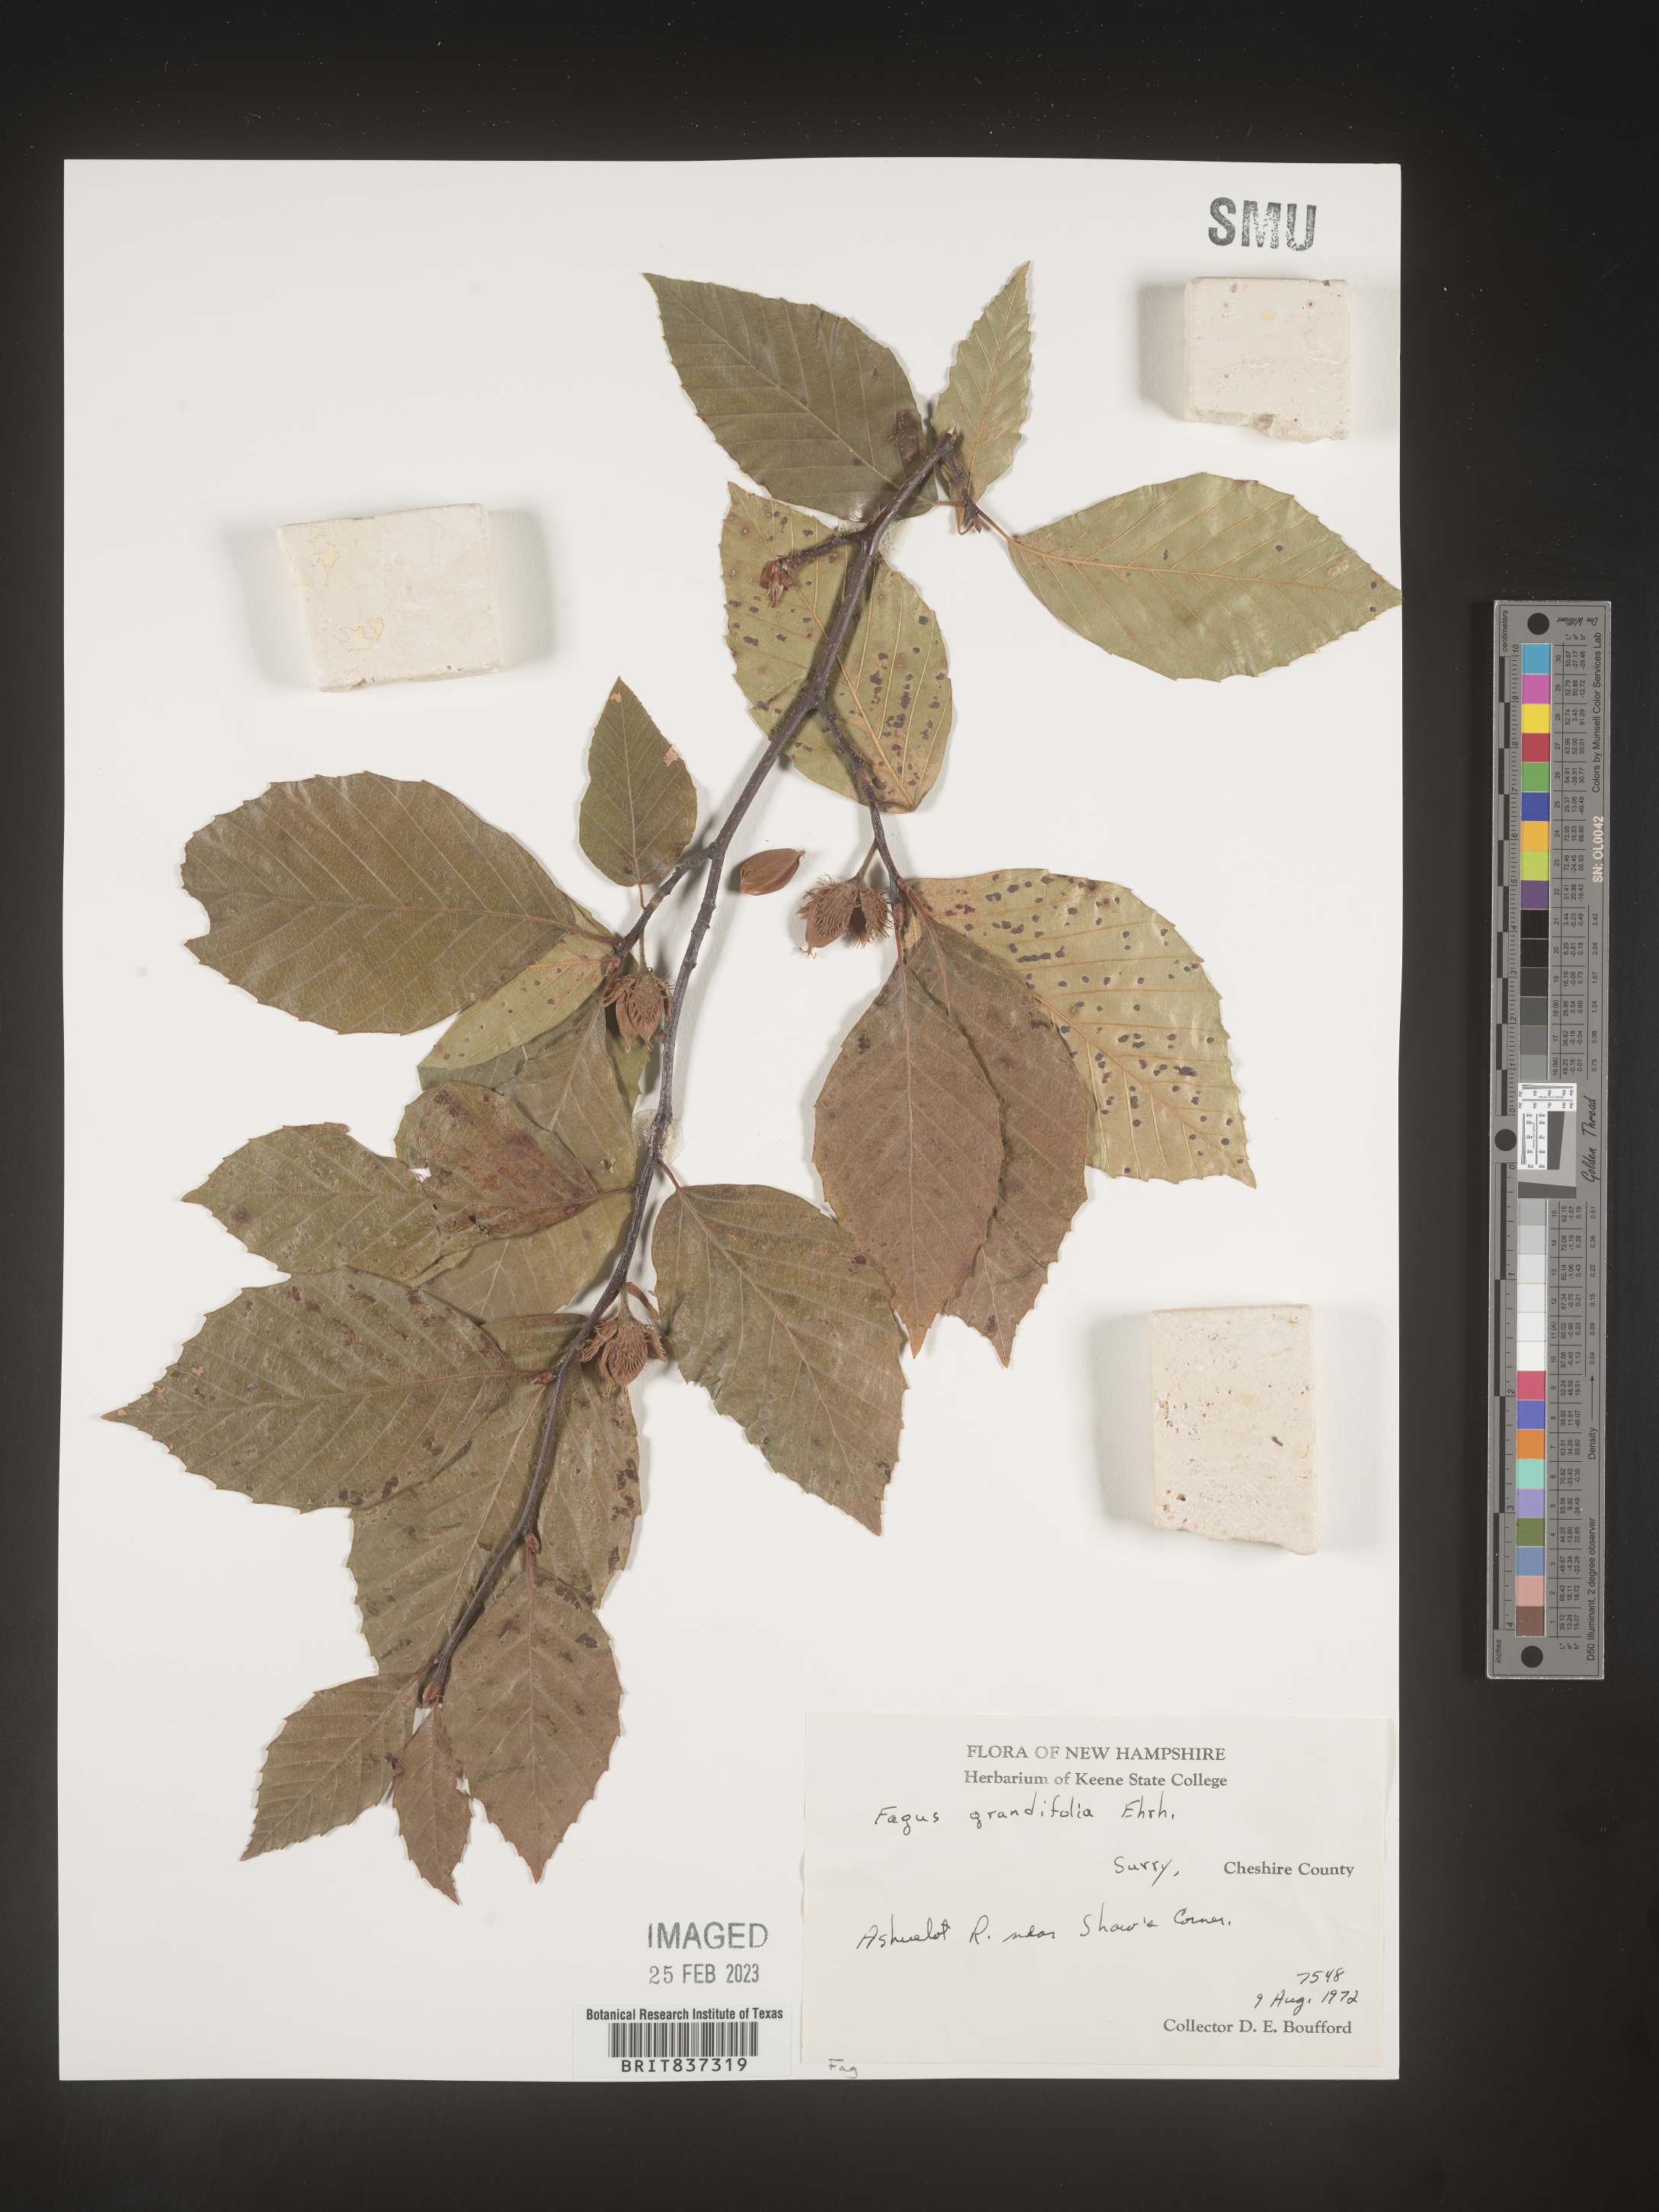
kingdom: Plantae
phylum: Tracheophyta
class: Magnoliopsida
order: Fagales
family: Fagaceae
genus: Fagus
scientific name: Fagus grandifolia
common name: American beech
